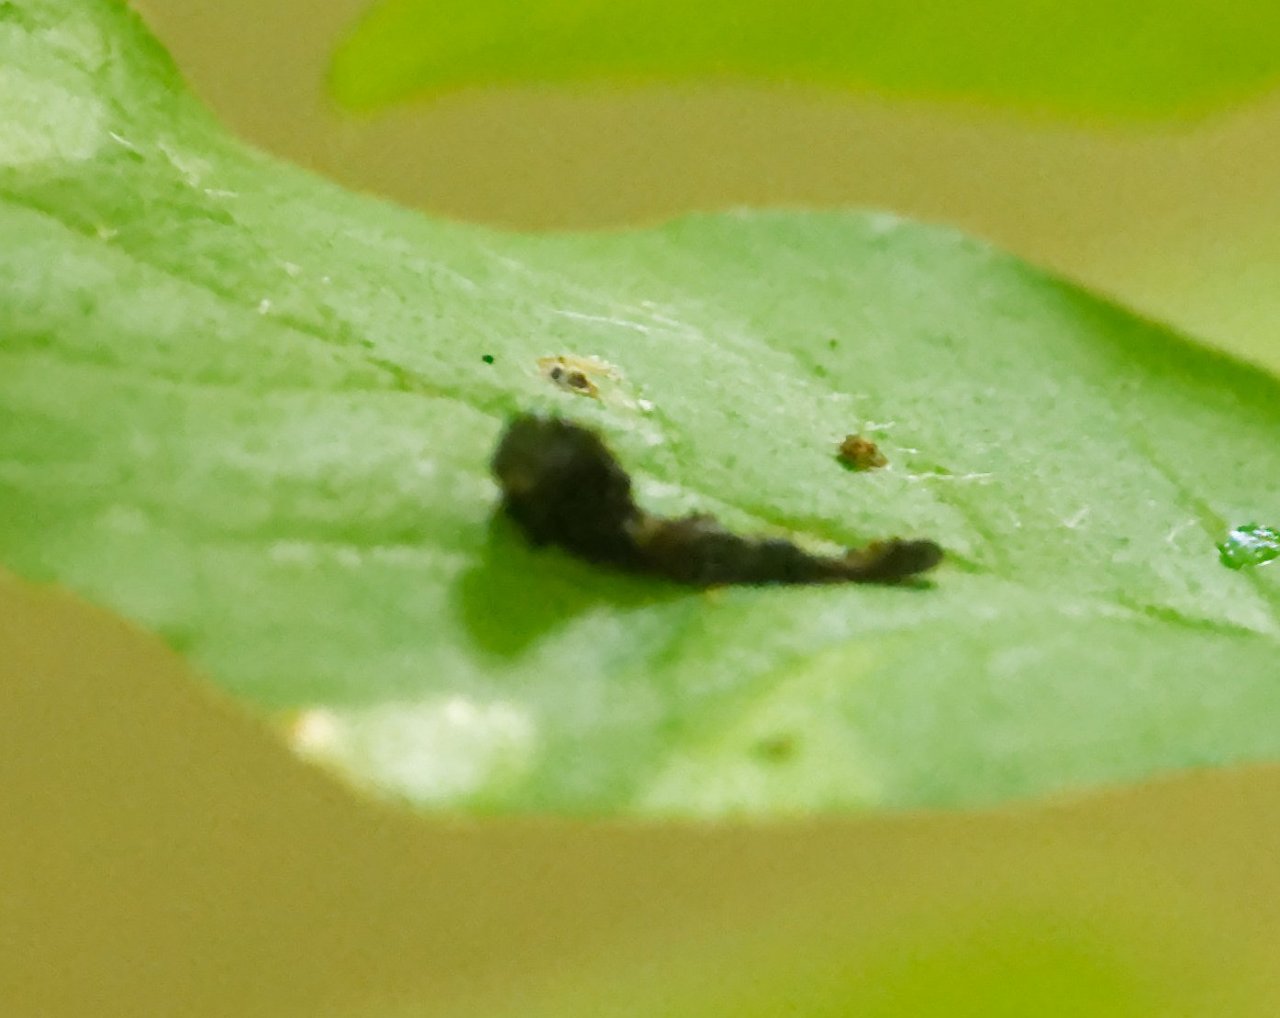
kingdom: Animalia
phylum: Arthropoda
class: Insecta
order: Lepidoptera
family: Papilionidae
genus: Papilio
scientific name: Papilio cresphontes
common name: Eastern Giant Swallowtail
